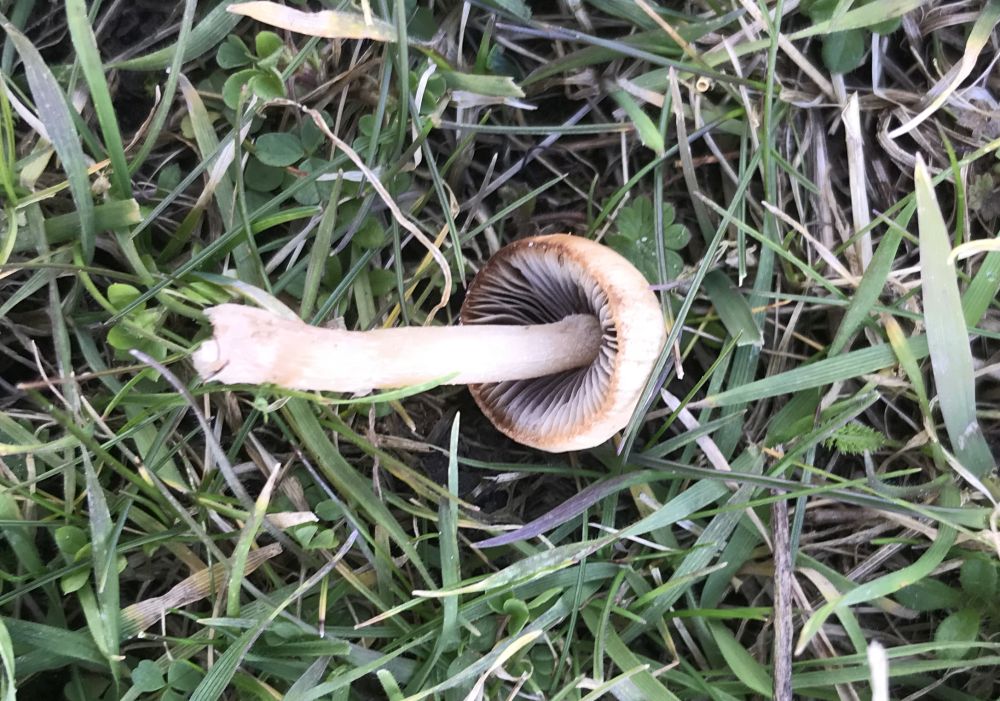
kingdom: Fungi
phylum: Basidiomycota
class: Agaricomycetes
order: Agaricales
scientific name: Agaricales
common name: champignonordenen
